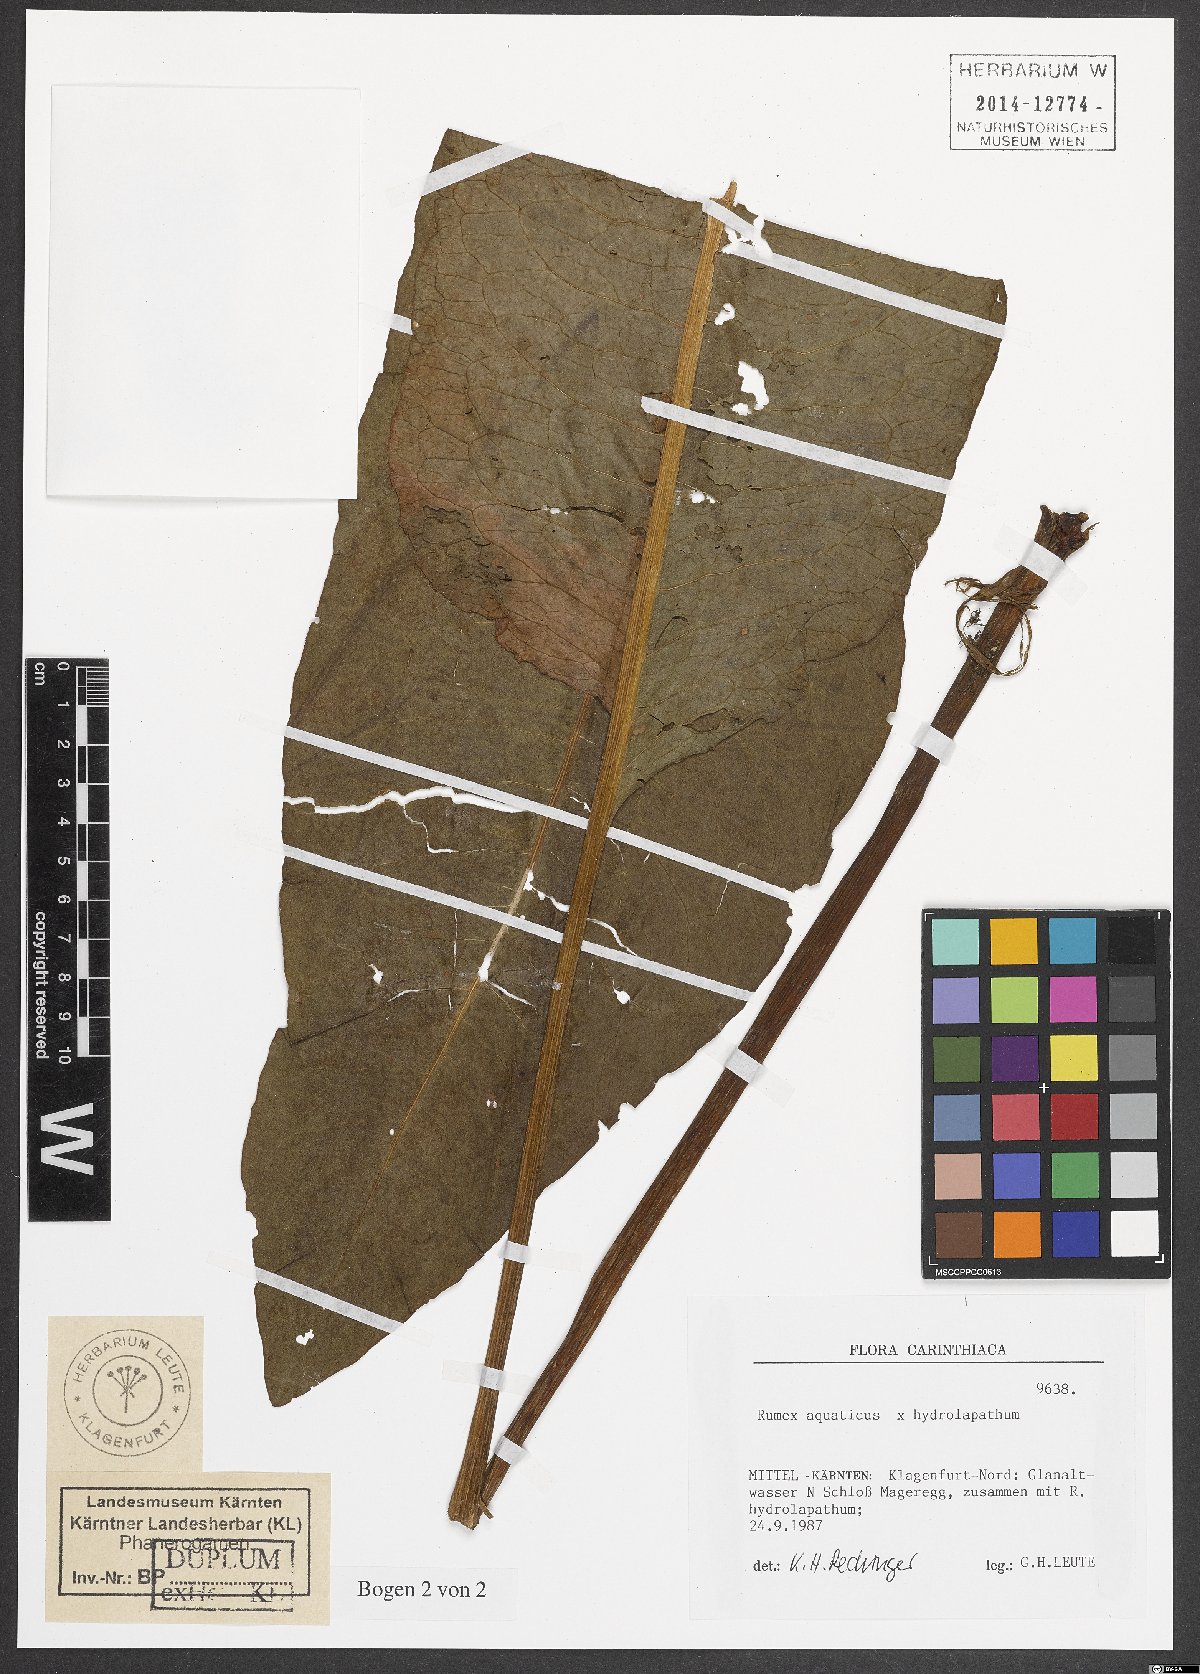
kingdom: Plantae
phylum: Tracheophyta
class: Magnoliopsida
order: Caryophyllales
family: Polygonaceae
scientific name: Polygonaceae
